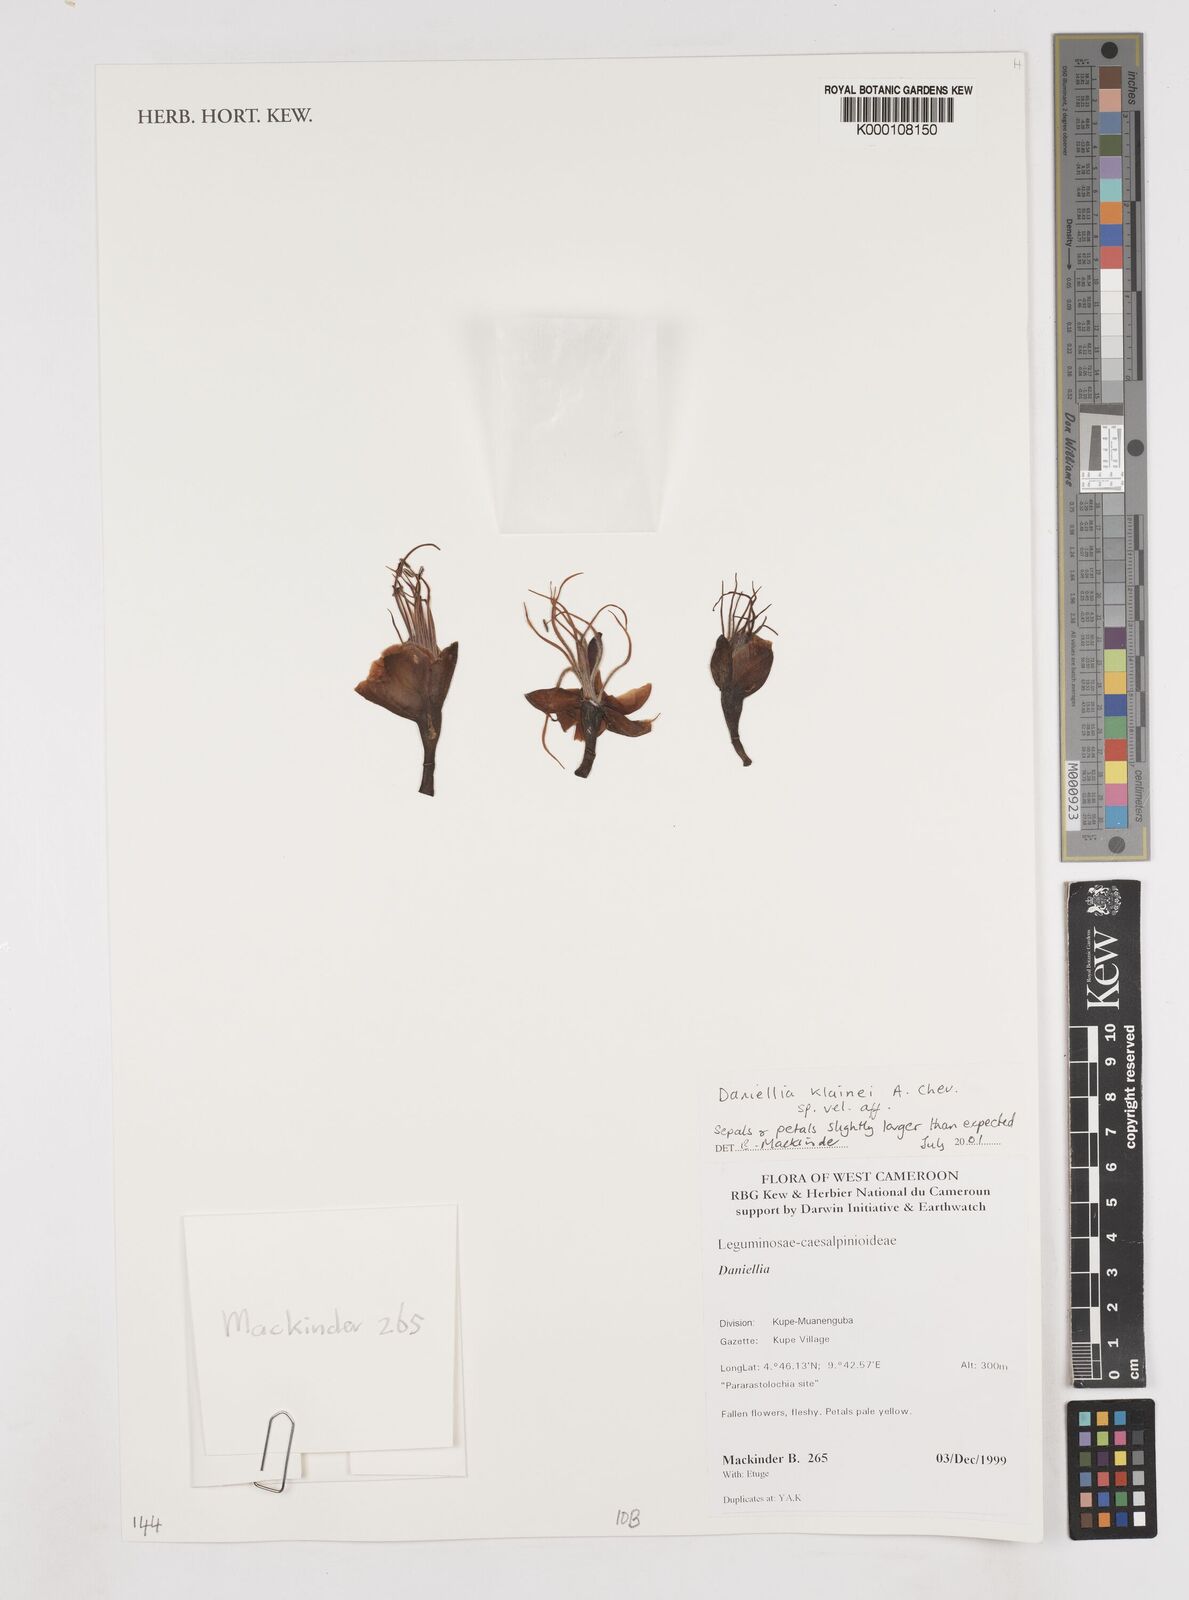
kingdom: Plantae
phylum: Tracheophyta
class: Magnoliopsida
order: Fabales
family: Fabaceae
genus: Daniellia
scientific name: Daniellia klainei
